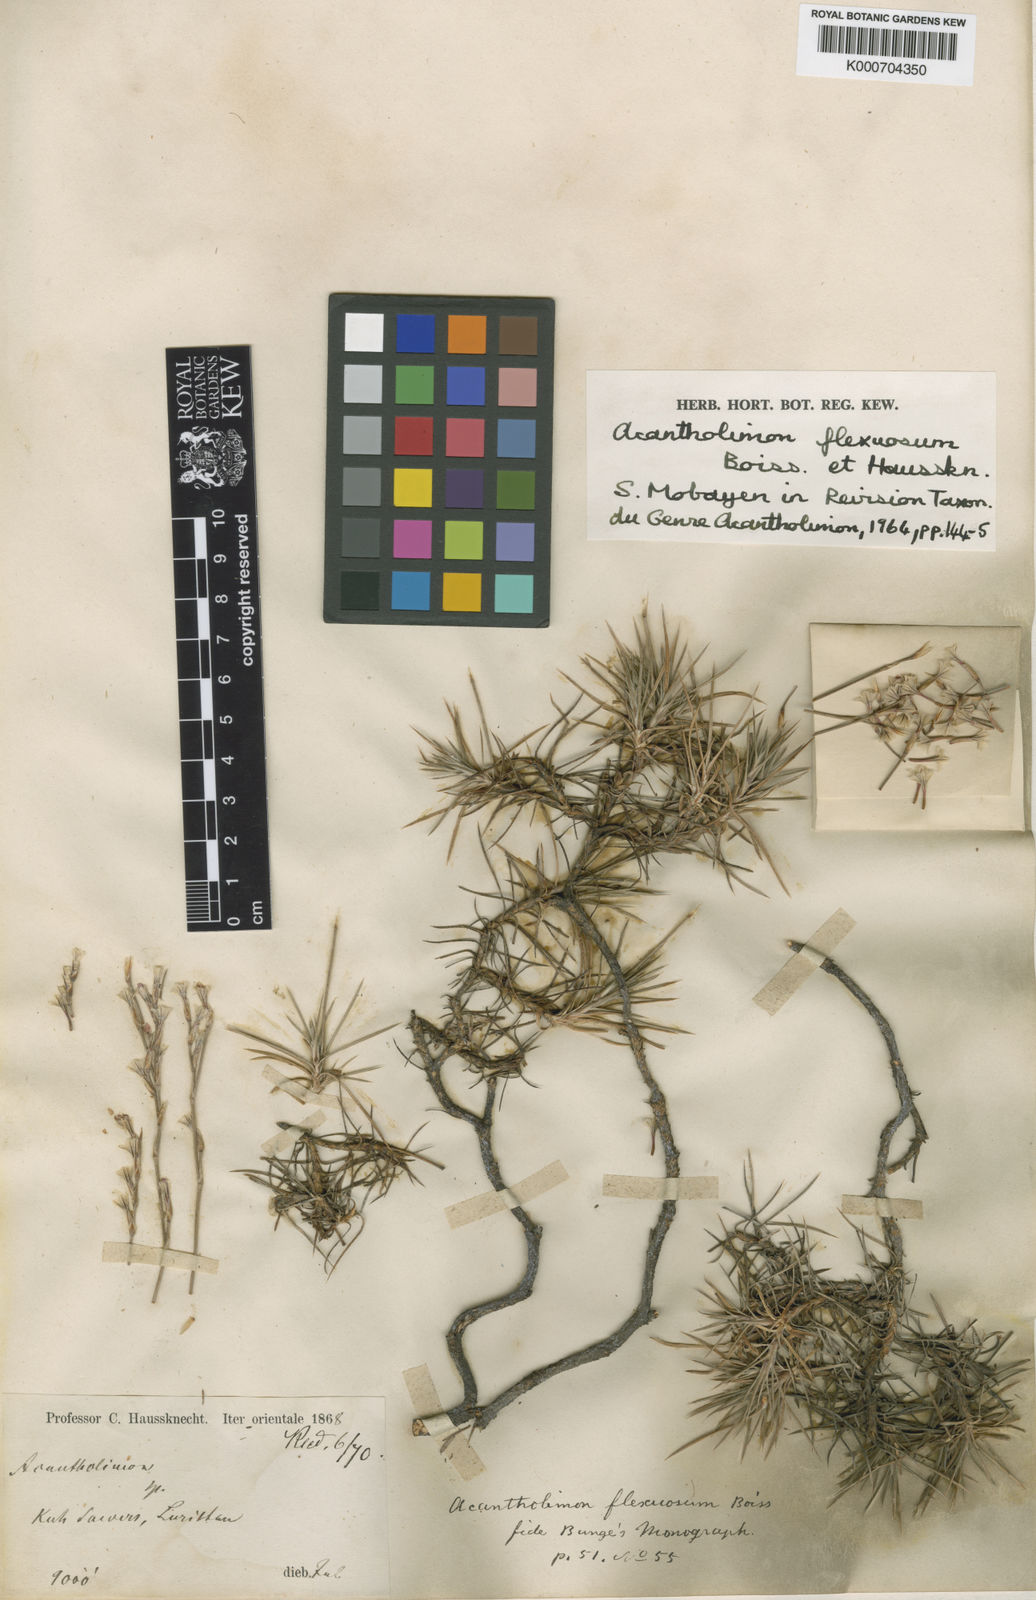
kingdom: Plantae
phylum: Tracheophyta
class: Magnoliopsida
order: Caryophyllales
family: Plumbaginaceae
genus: Acantholimon
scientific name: Acantholimon festucaceum
